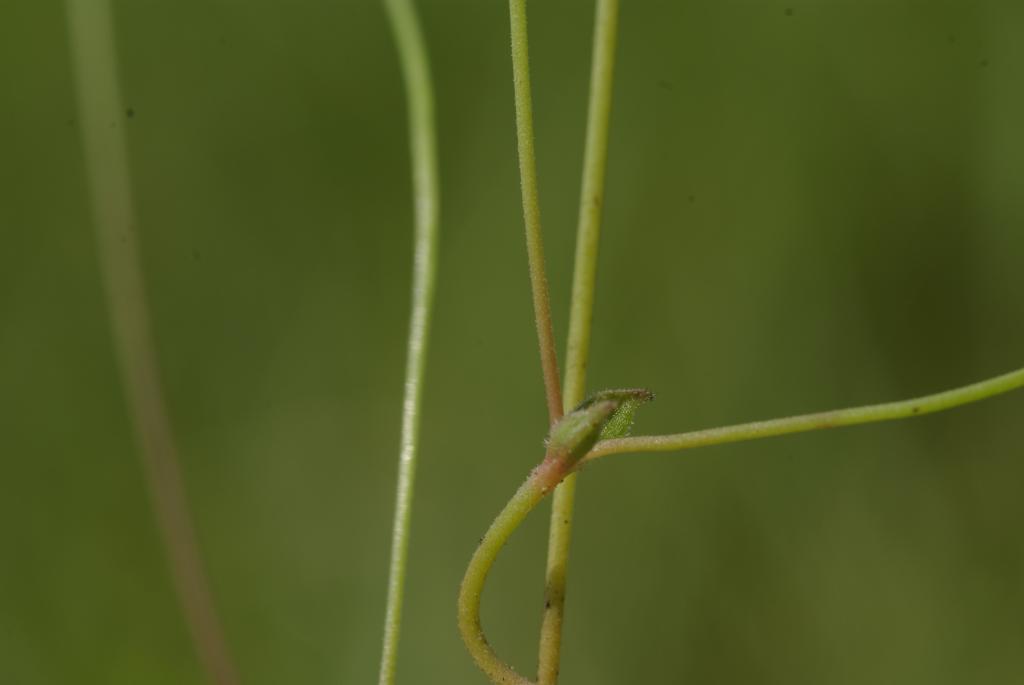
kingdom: Plantae
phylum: Tracheophyta
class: Magnoliopsida
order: Gentianales
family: Loganiaceae
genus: Mitrasacme
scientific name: Mitrasacme pygmaea
